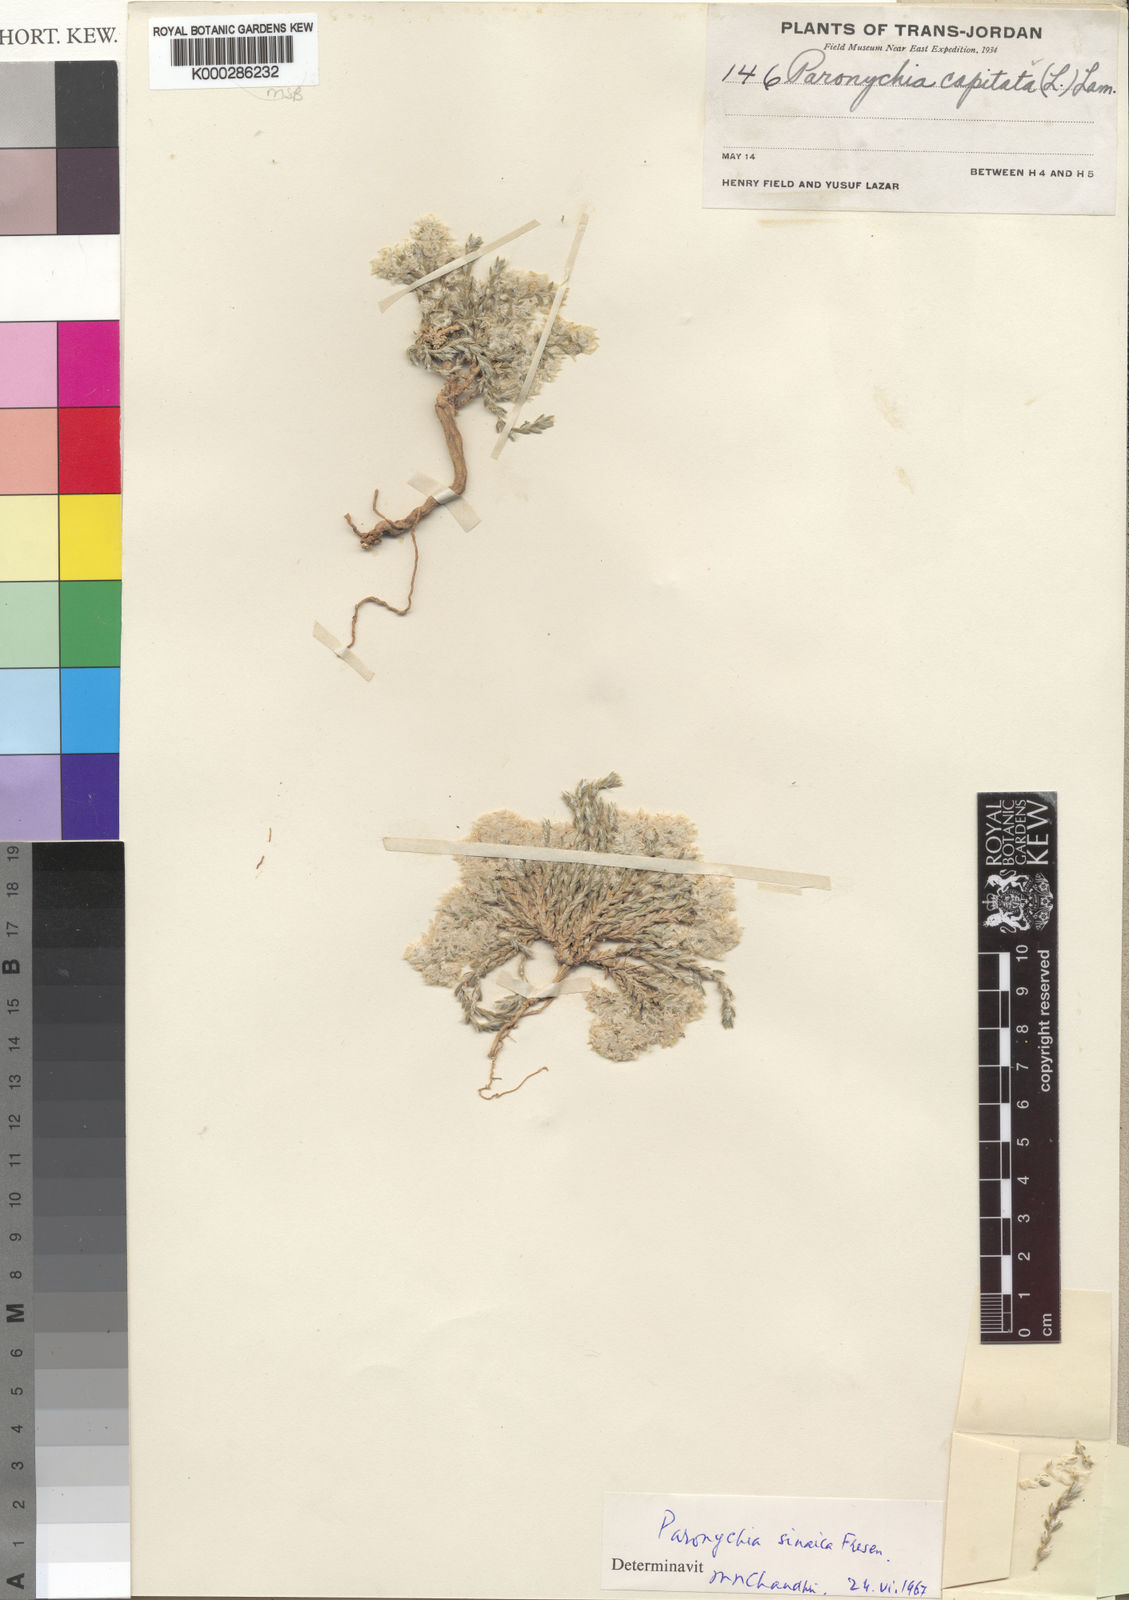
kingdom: Plantae
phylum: Tracheophyta
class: Magnoliopsida
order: Caryophyllales
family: Caryophyllaceae
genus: Paronychia
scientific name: Paronychia sinaica
